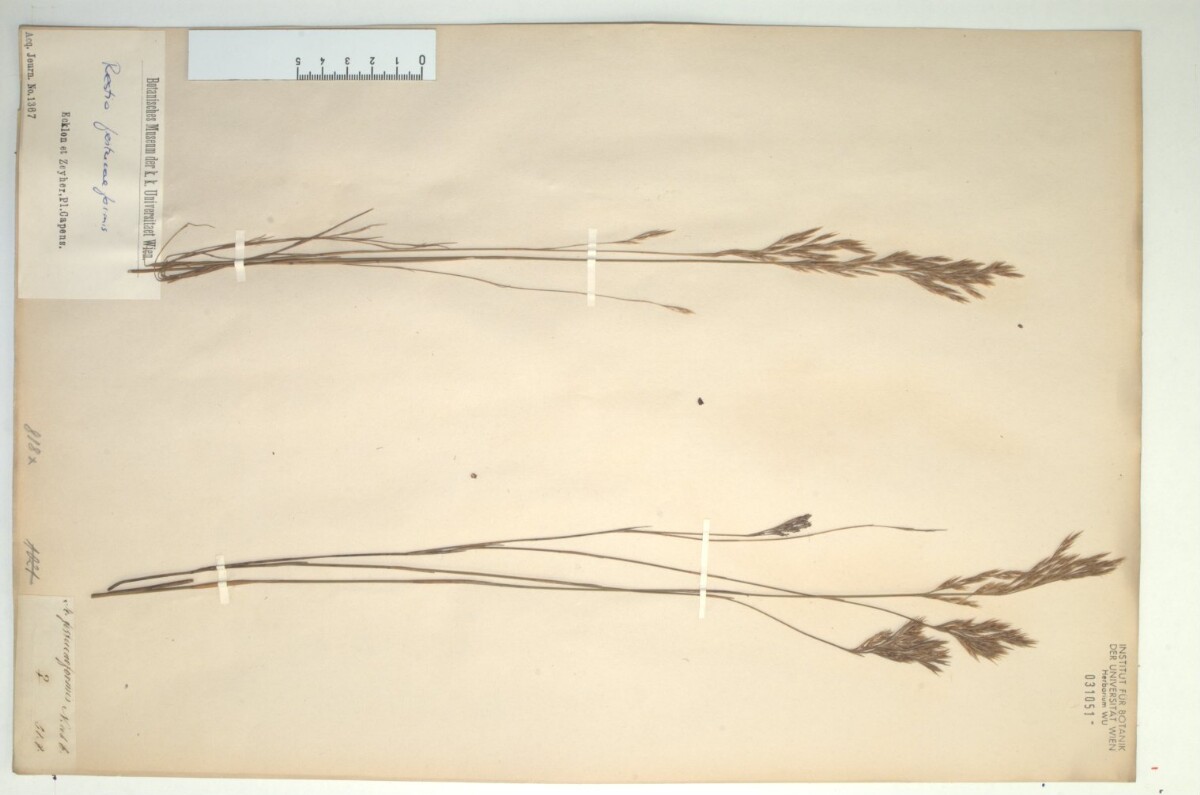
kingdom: Plantae
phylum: Tracheophyta
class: Liliopsida
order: Poales
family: Restionaceae
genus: Restio
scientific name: Restio festuciformis
